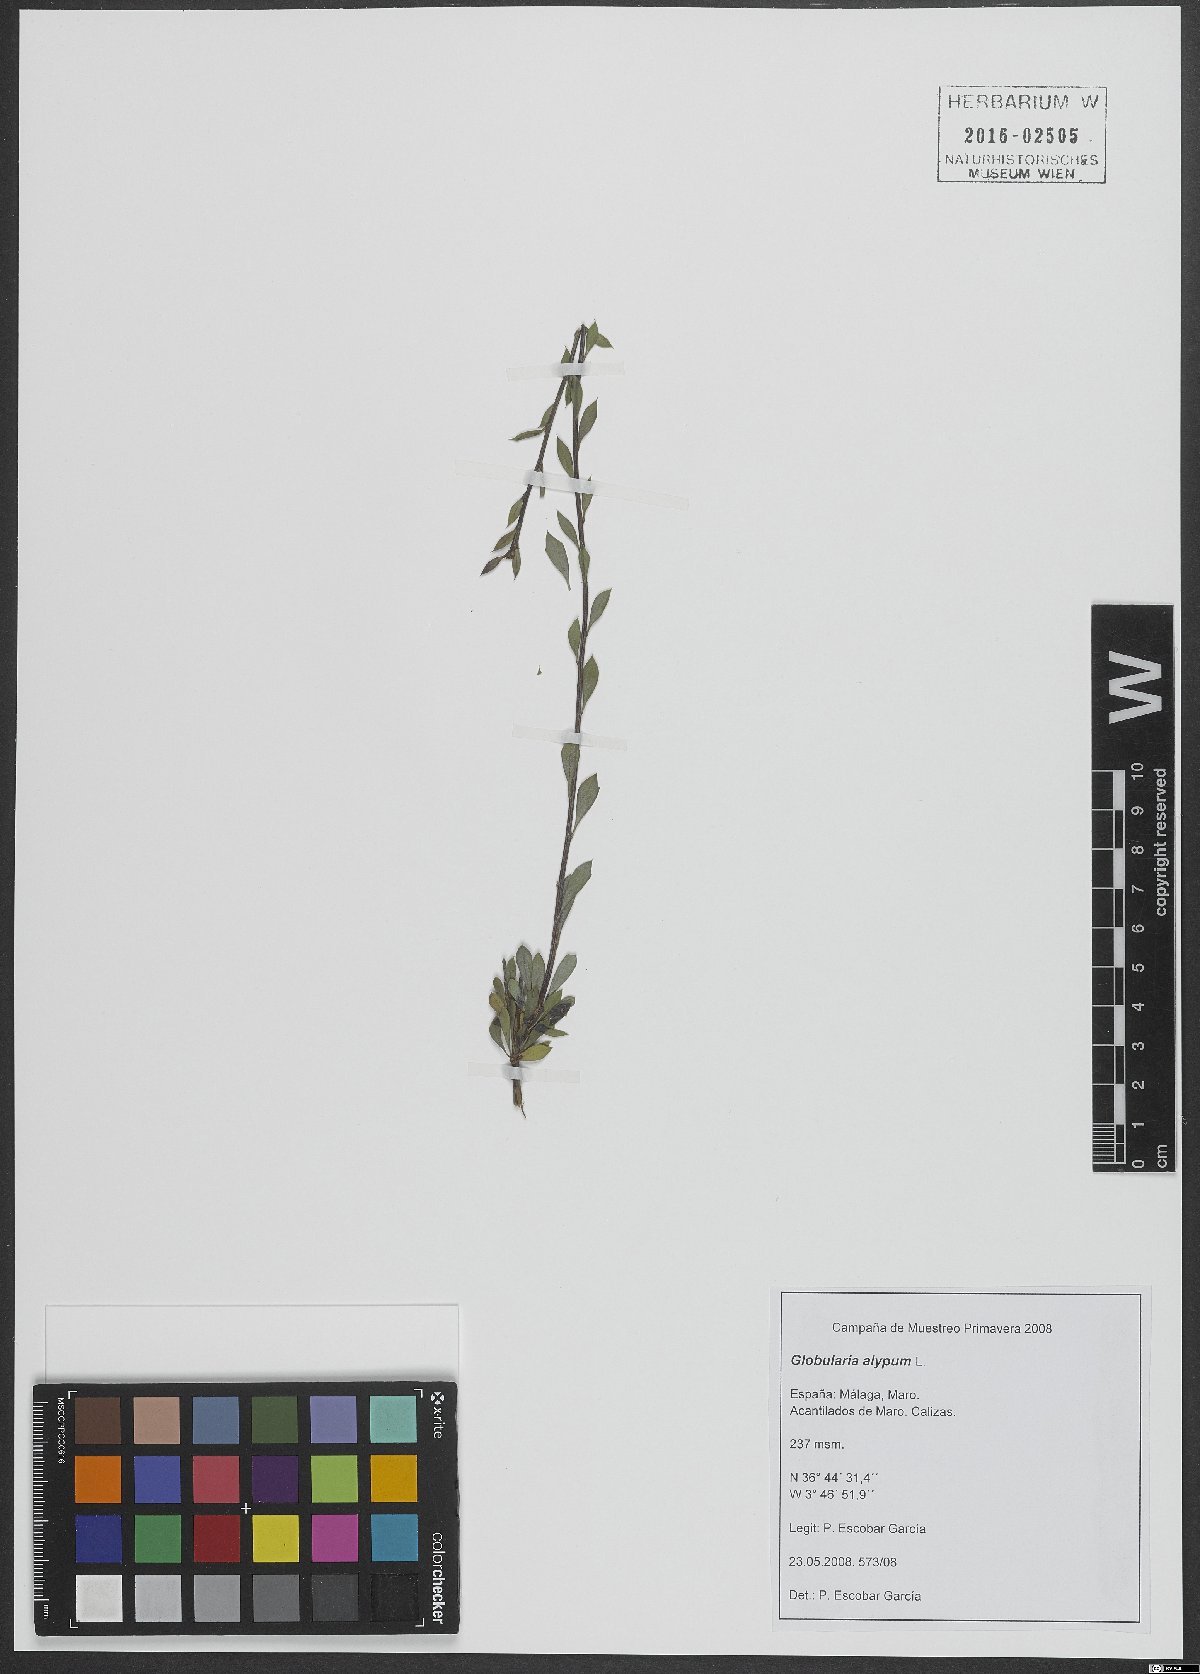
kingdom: Plantae
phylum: Tracheophyta
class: Magnoliopsida
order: Lamiales
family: Plantaginaceae
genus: Globularia
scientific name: Globularia alypum
